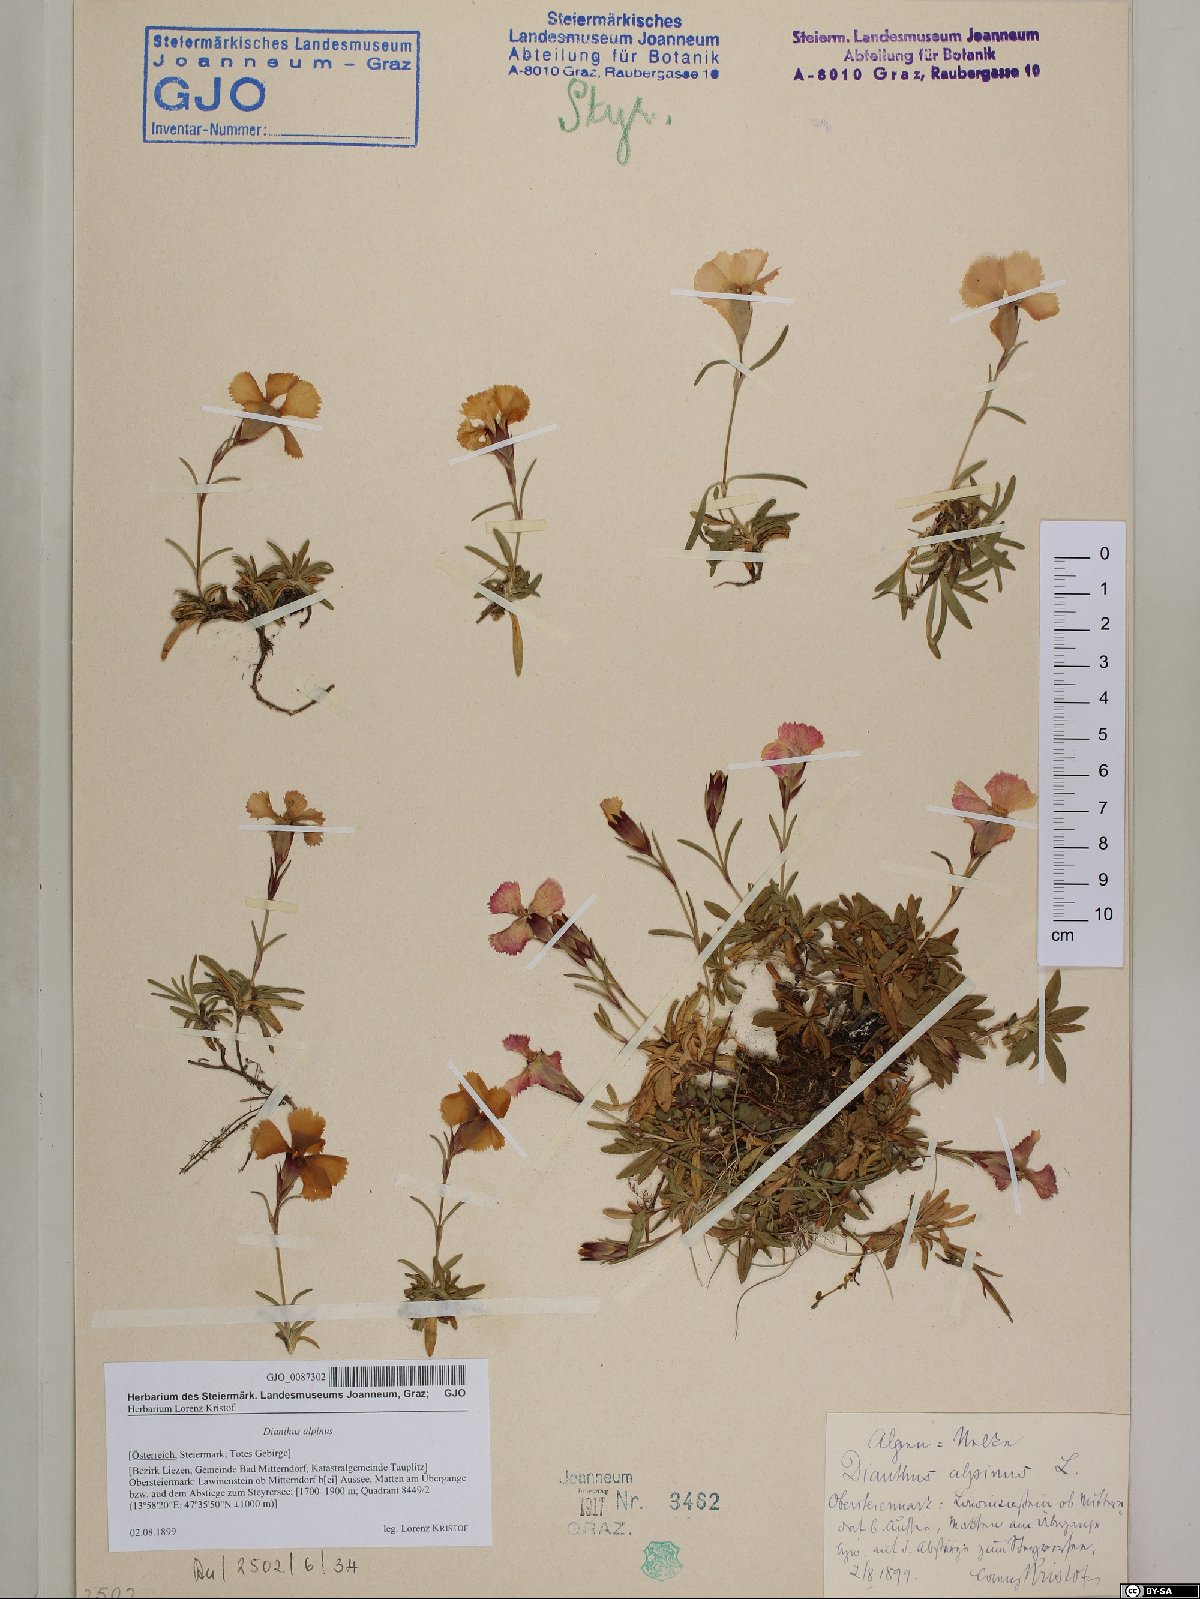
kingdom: Plantae
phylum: Tracheophyta
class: Magnoliopsida
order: Caryophyllales
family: Caryophyllaceae
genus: Dianthus
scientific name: Dianthus alpinus
